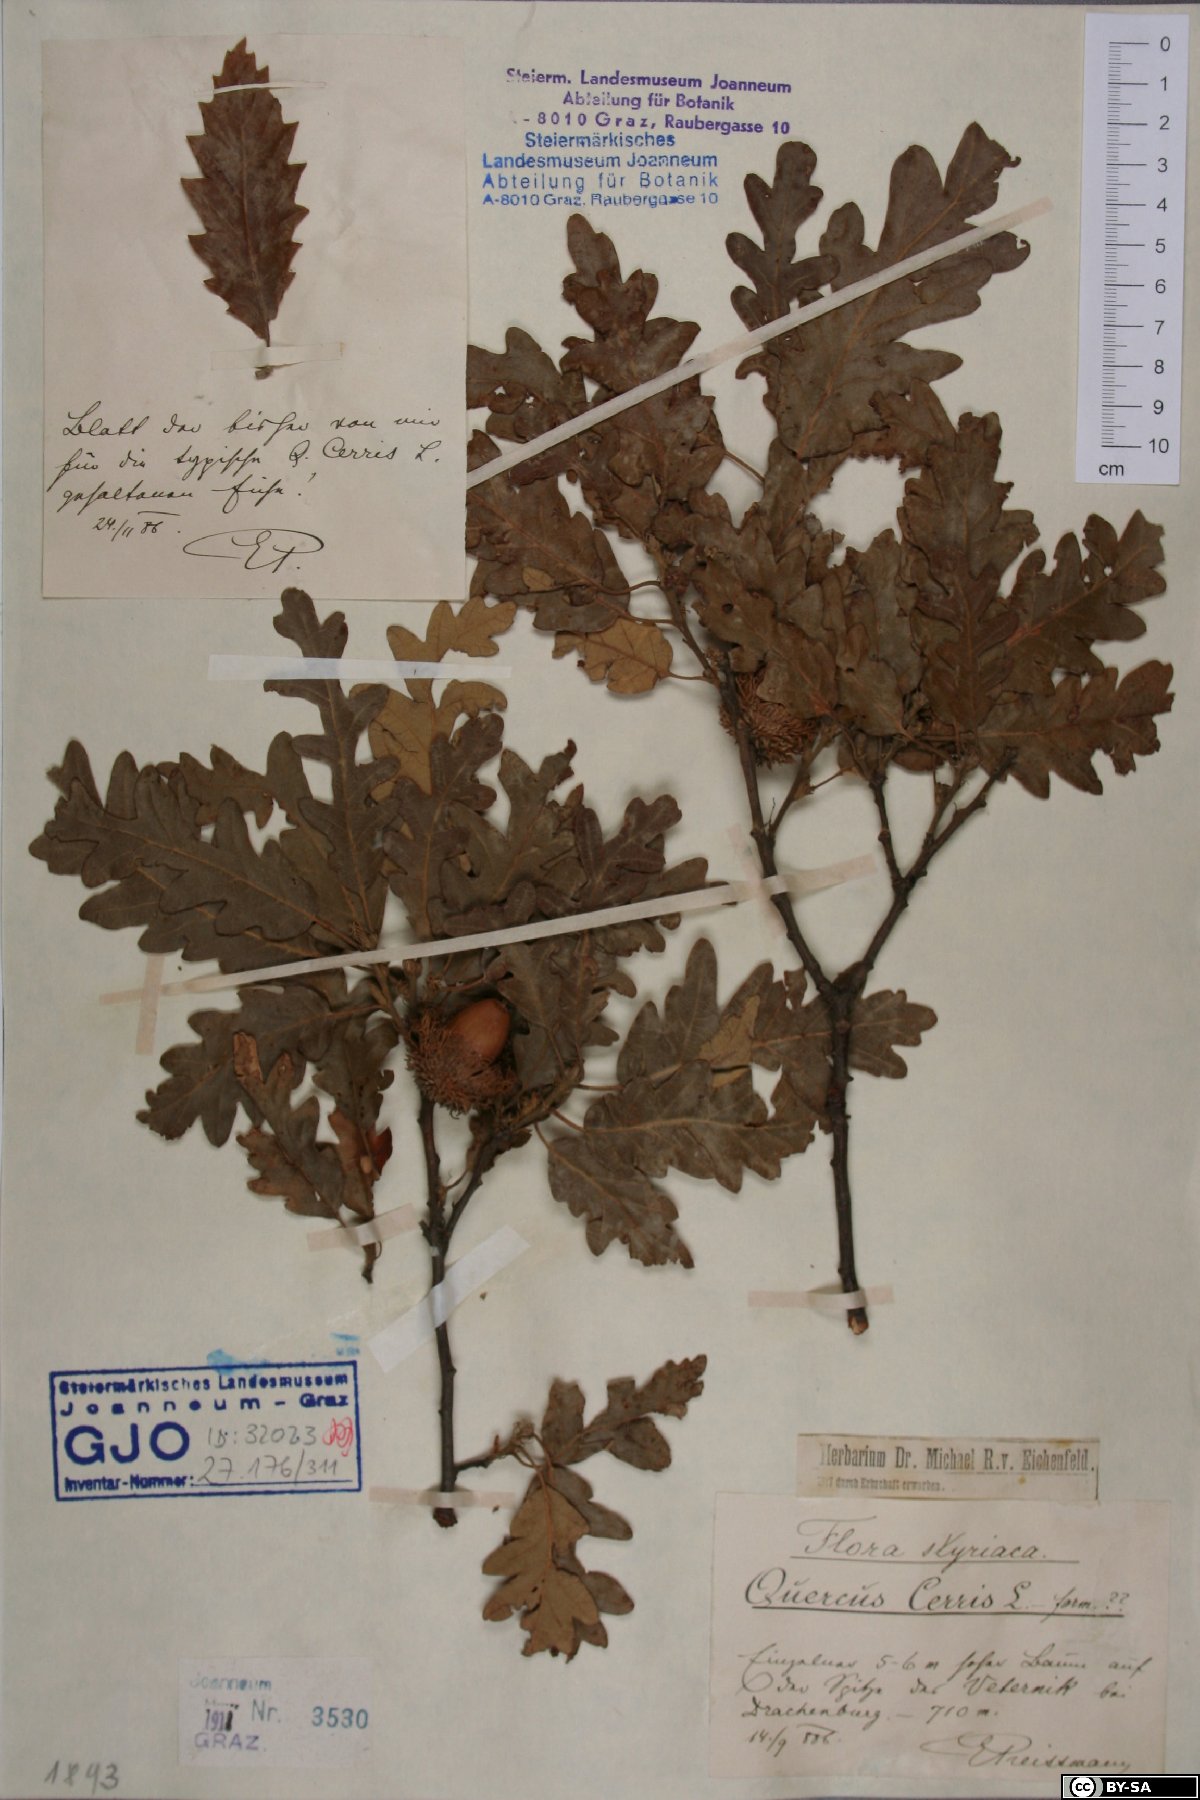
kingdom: Plantae
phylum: Tracheophyta
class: Magnoliopsida
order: Fagales
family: Fagaceae
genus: Quercus
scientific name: Quercus cerris
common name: Turkey oak
